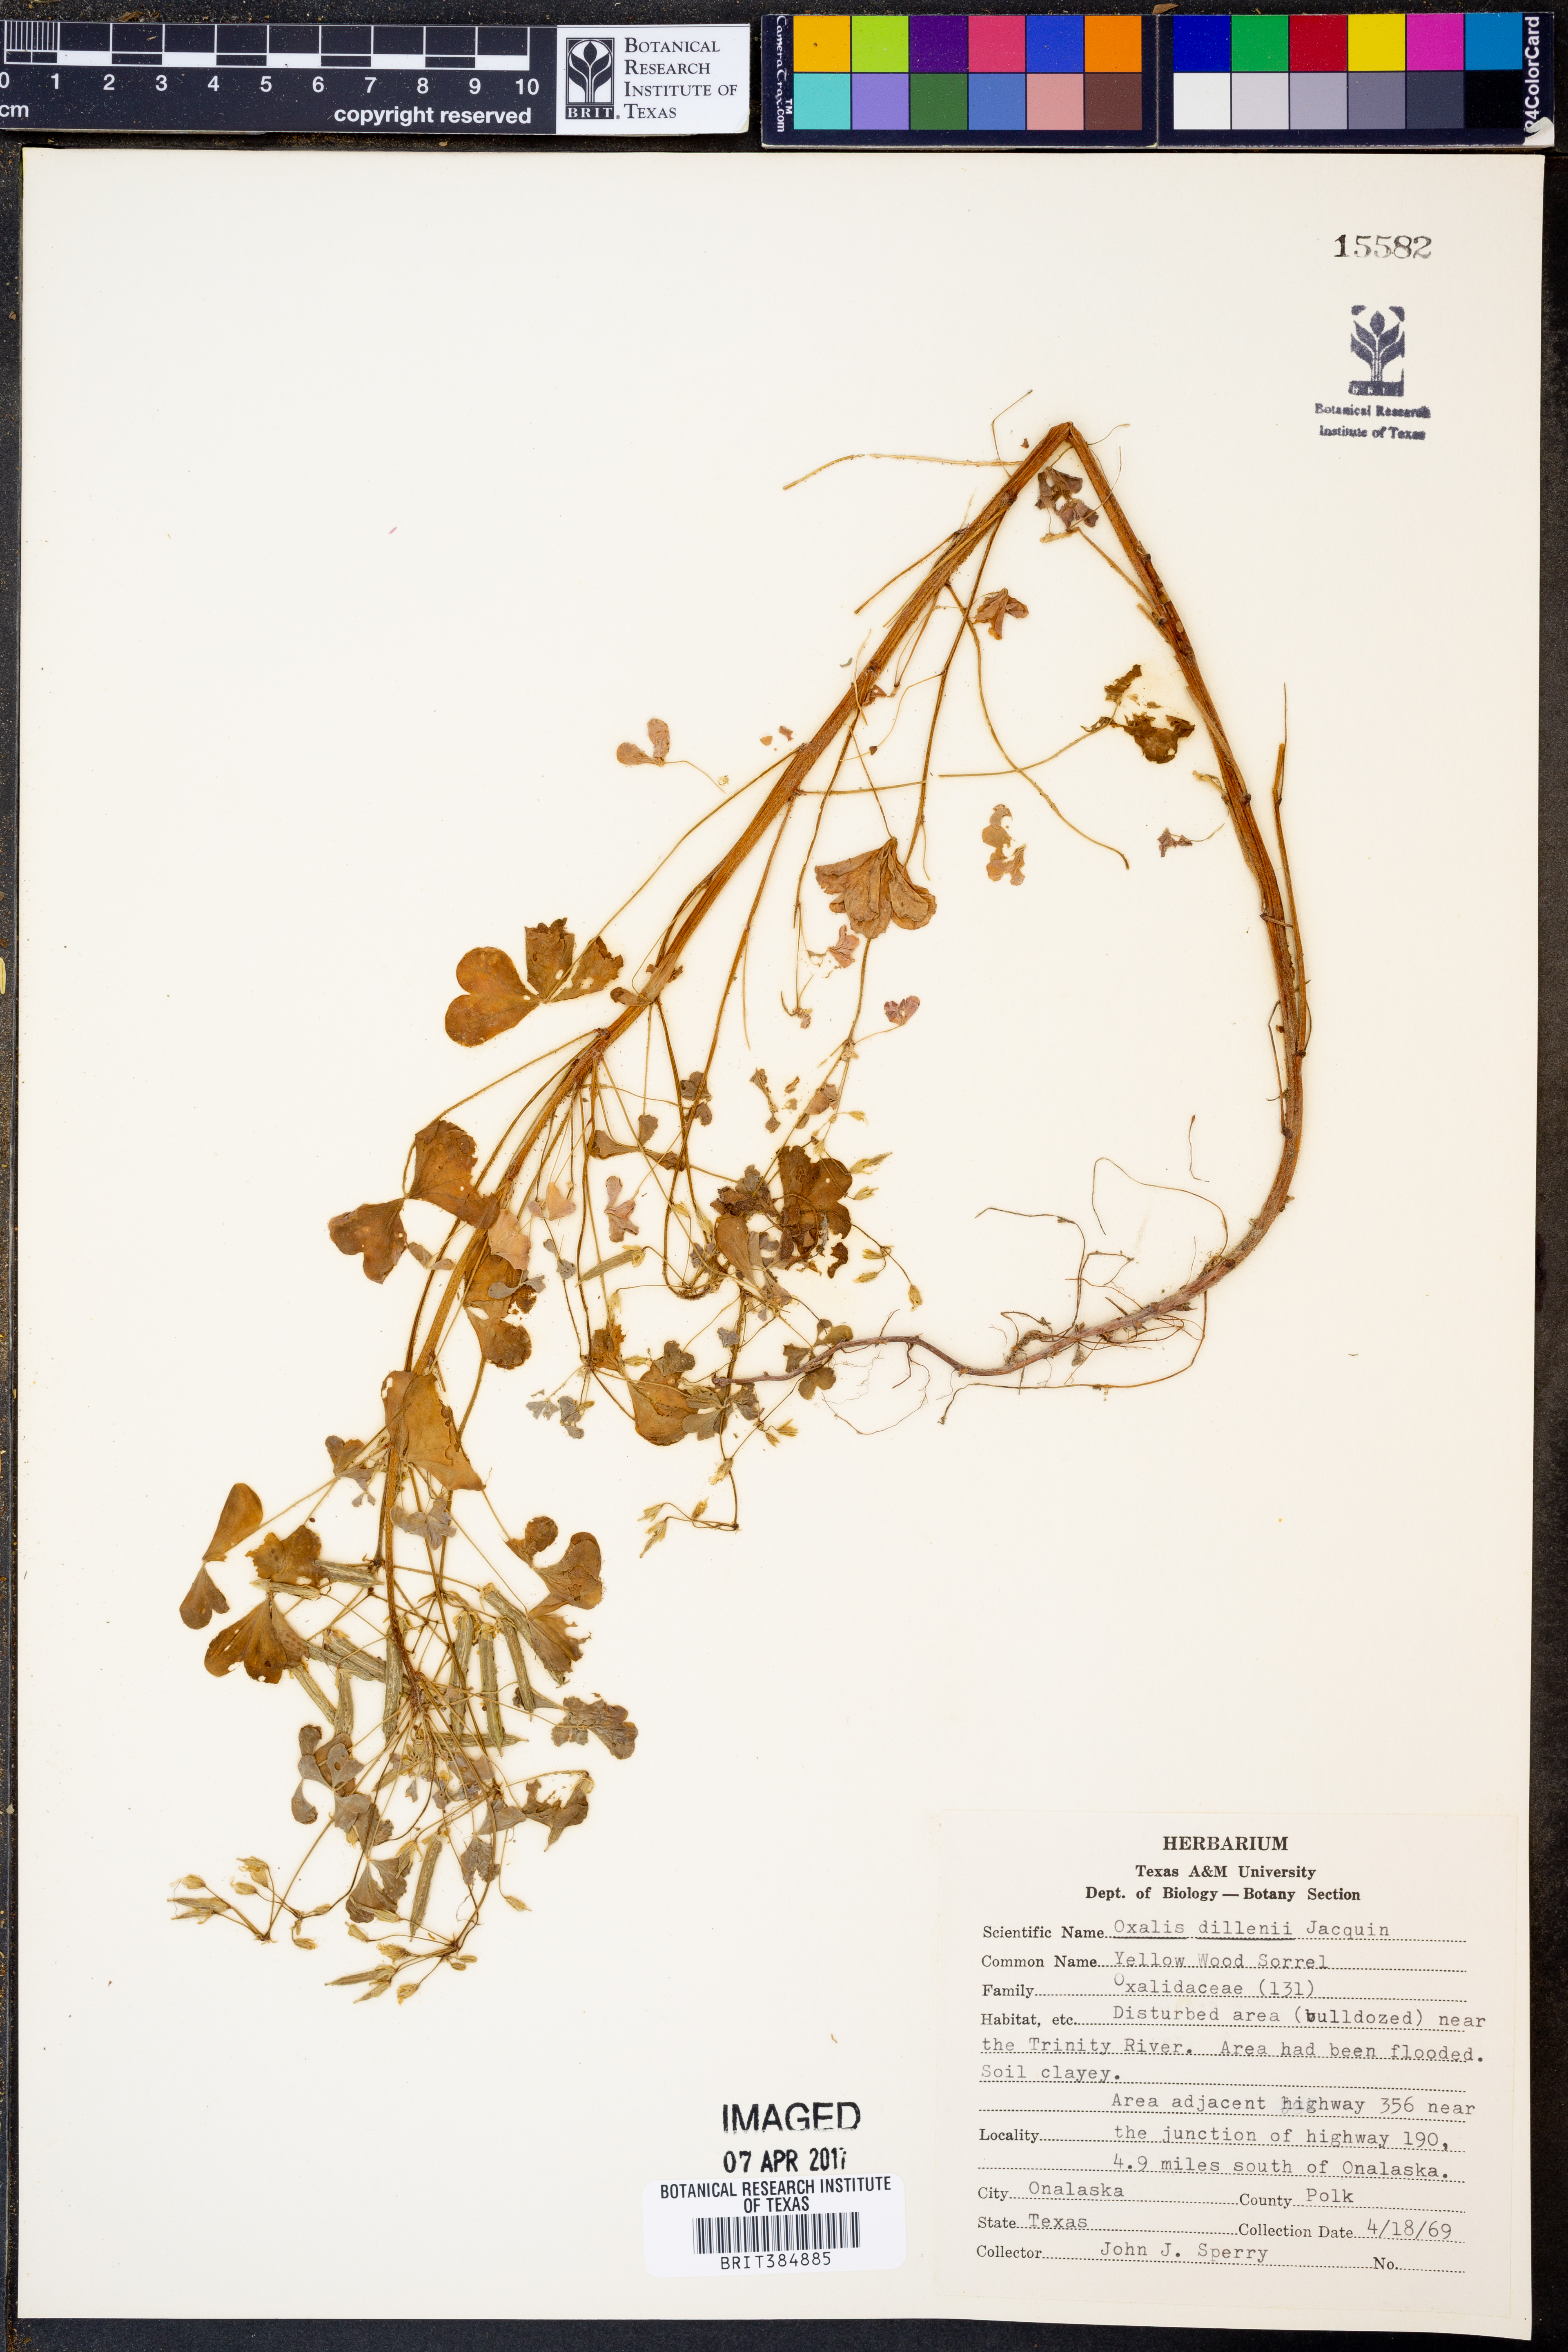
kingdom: Plantae
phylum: Tracheophyta
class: Magnoliopsida
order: Oxalidales
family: Oxalidaceae
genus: Oxalis
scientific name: Oxalis dillenii
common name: Sussex yellow-sorrel
